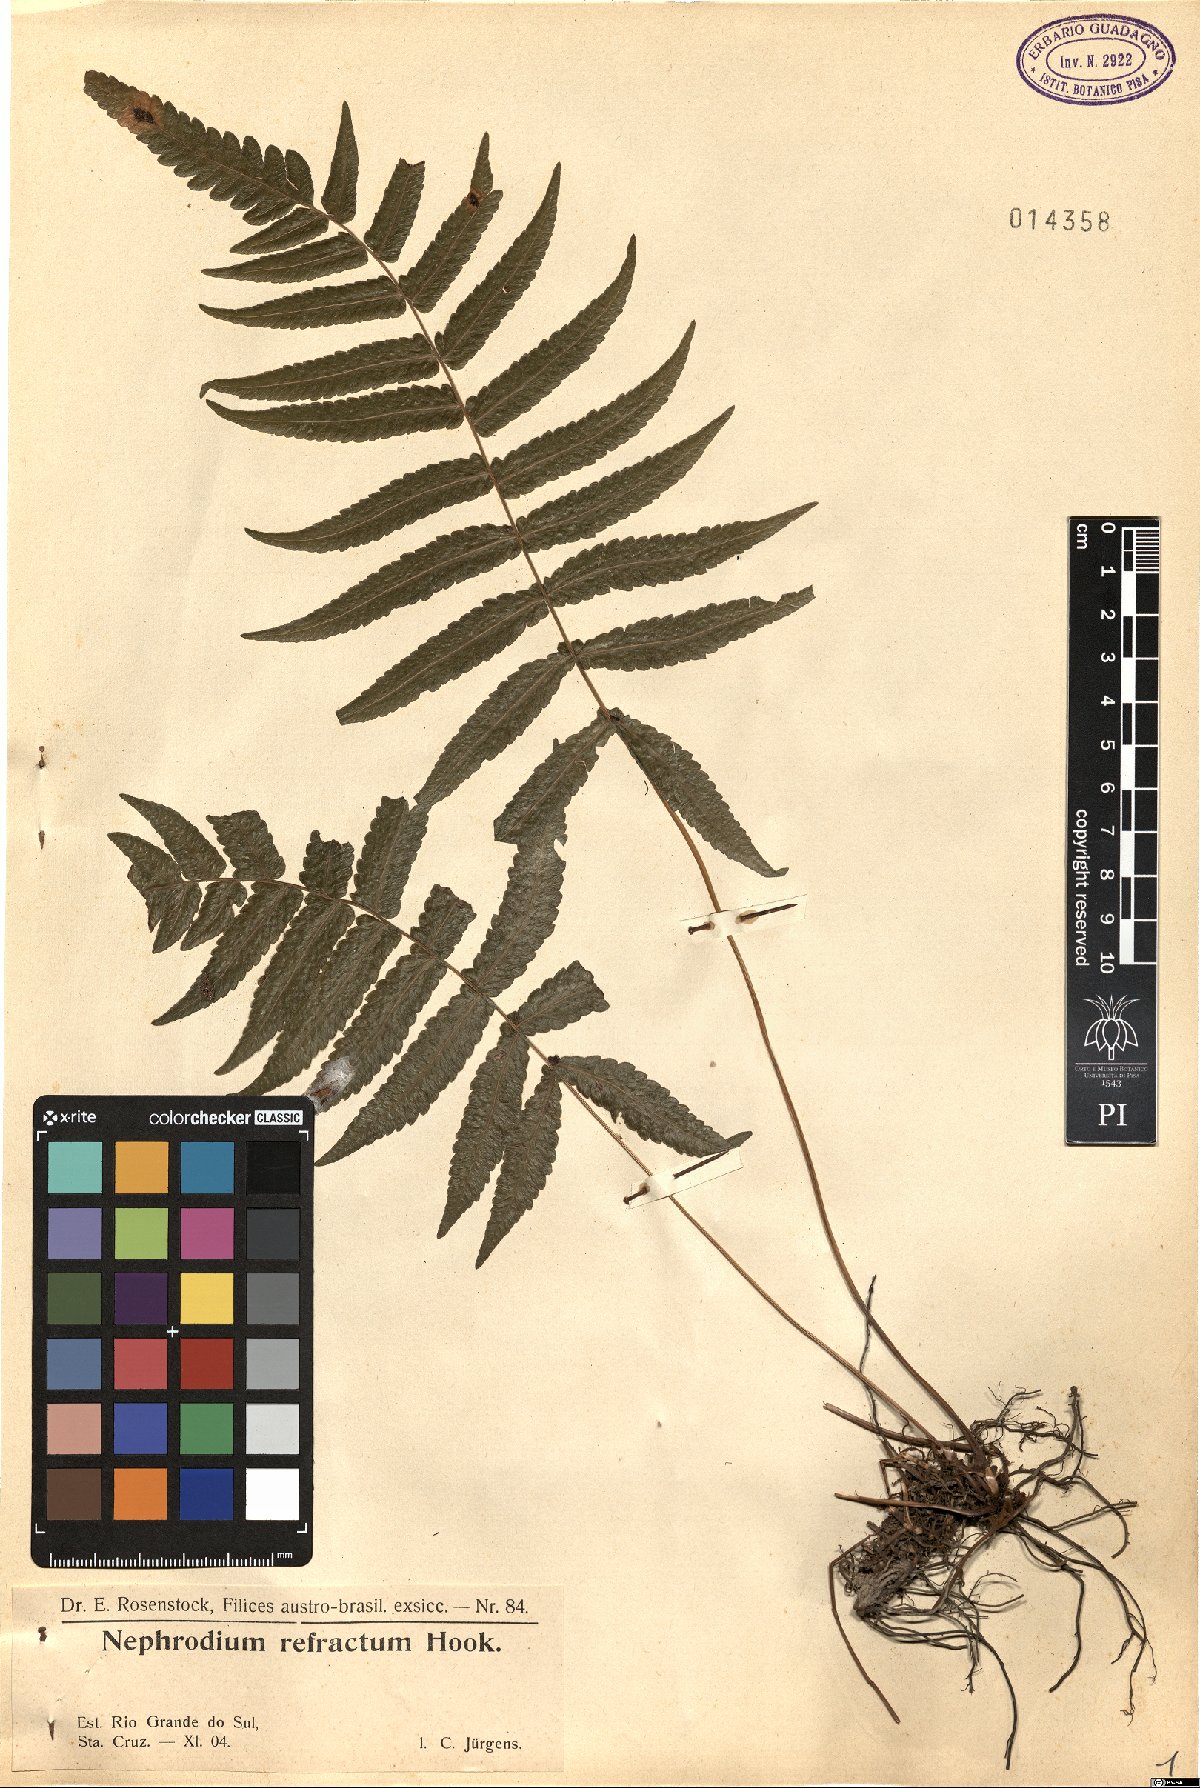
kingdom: Plantae
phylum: Tracheophyta
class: Polypodiopsida
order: Polypodiales
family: Thelypteridaceae
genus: Goniopteris
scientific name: Goniopteris refracta
